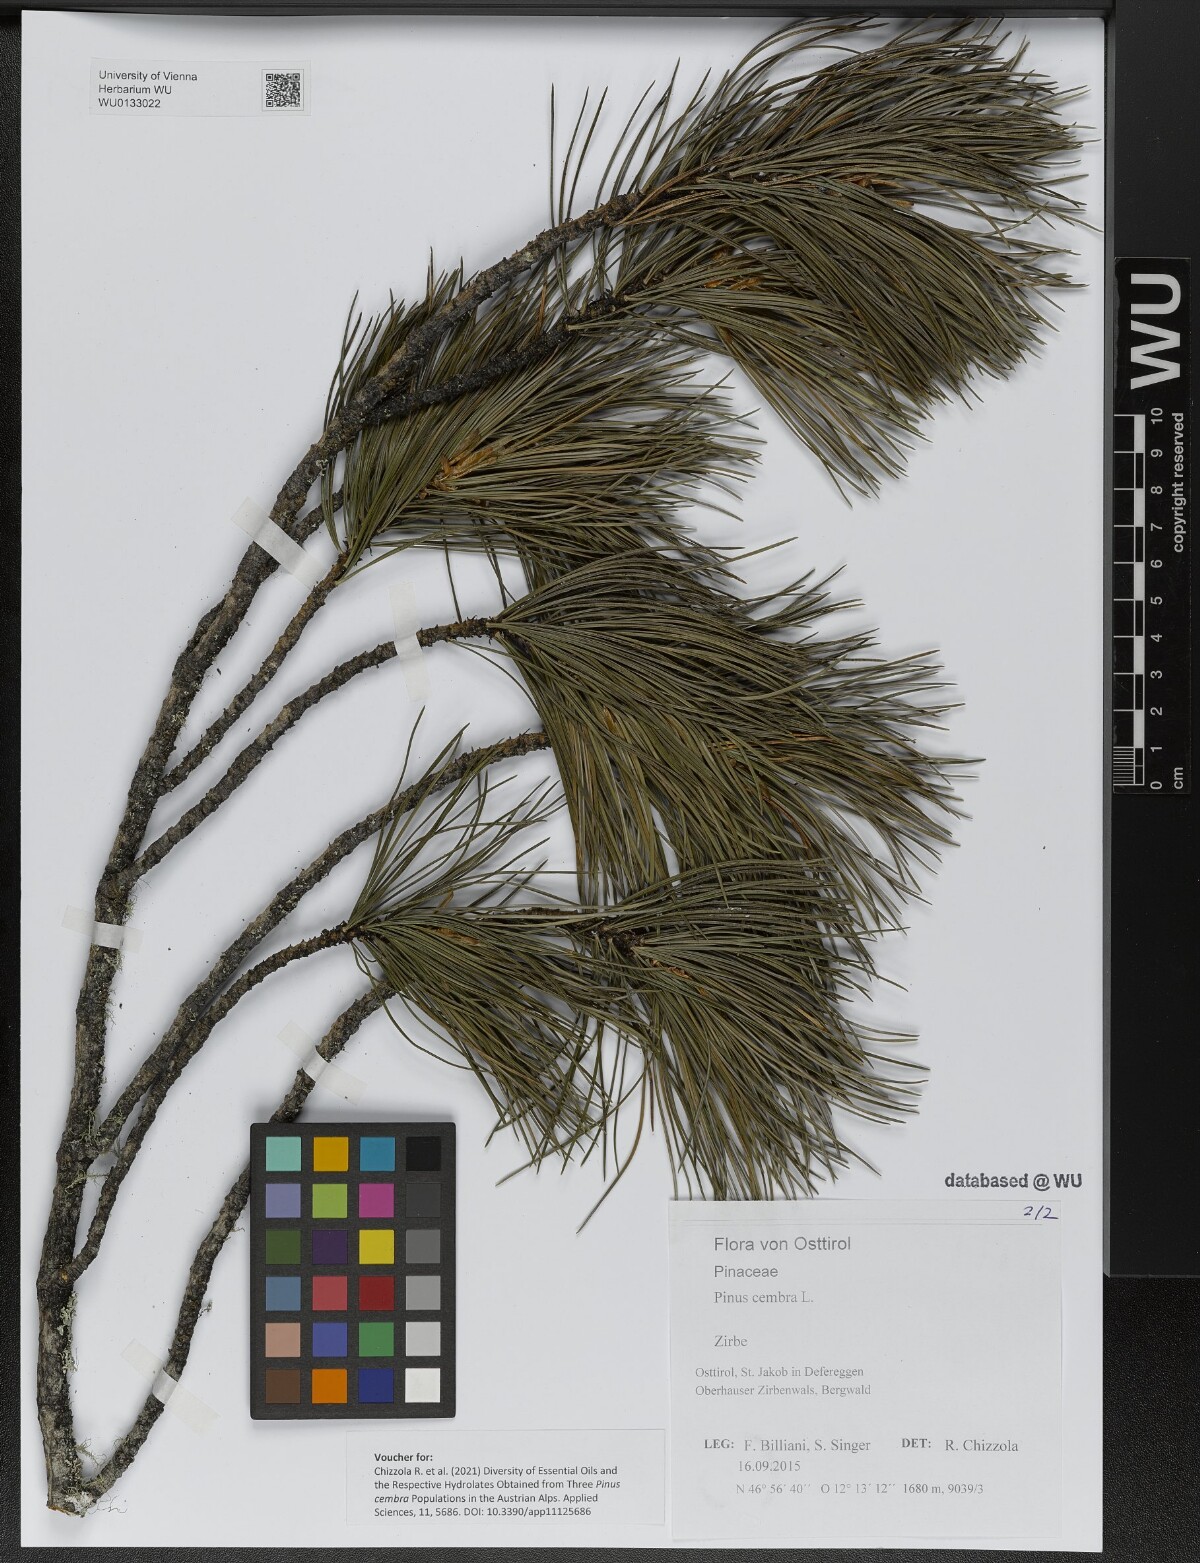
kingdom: Plantae
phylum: Tracheophyta
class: Pinopsida
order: Pinales
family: Pinaceae
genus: Pinus
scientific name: Pinus cembra
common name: Arolla pine
